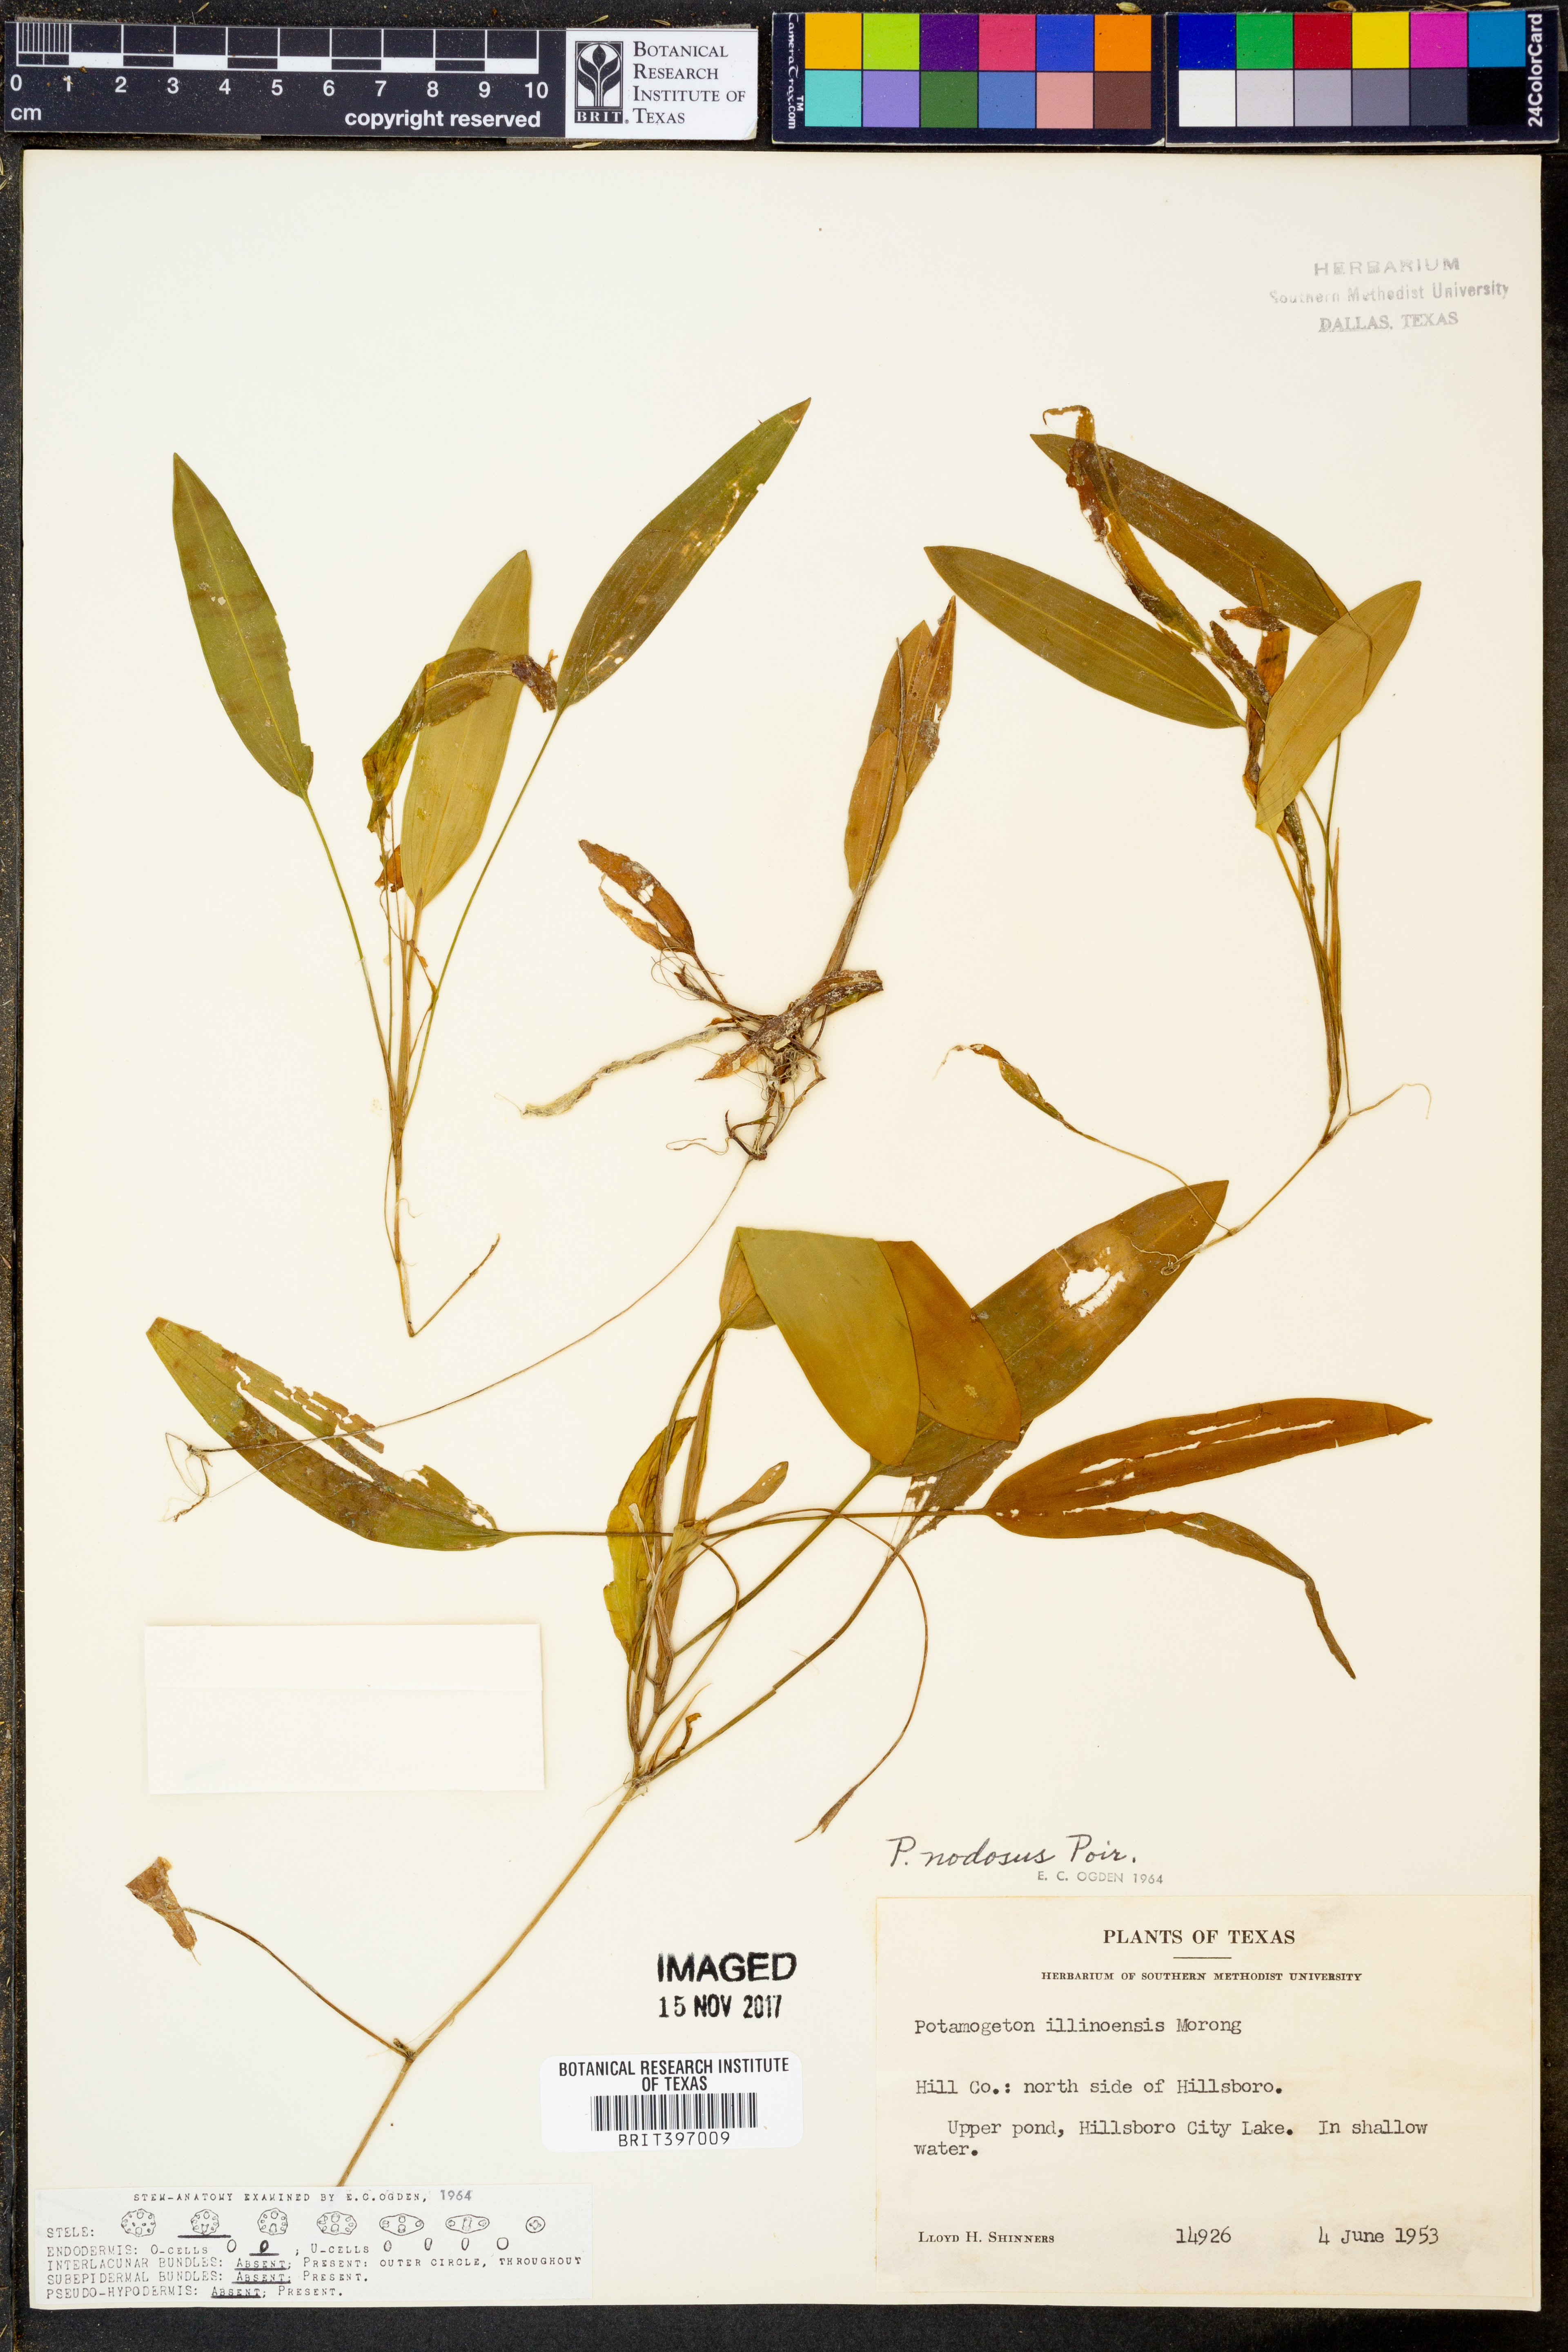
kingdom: Plantae
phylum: Tracheophyta
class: Liliopsida
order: Alismatales
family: Potamogetonaceae
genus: Potamogeton
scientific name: Potamogeton nodosus
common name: Loddon pondweed
